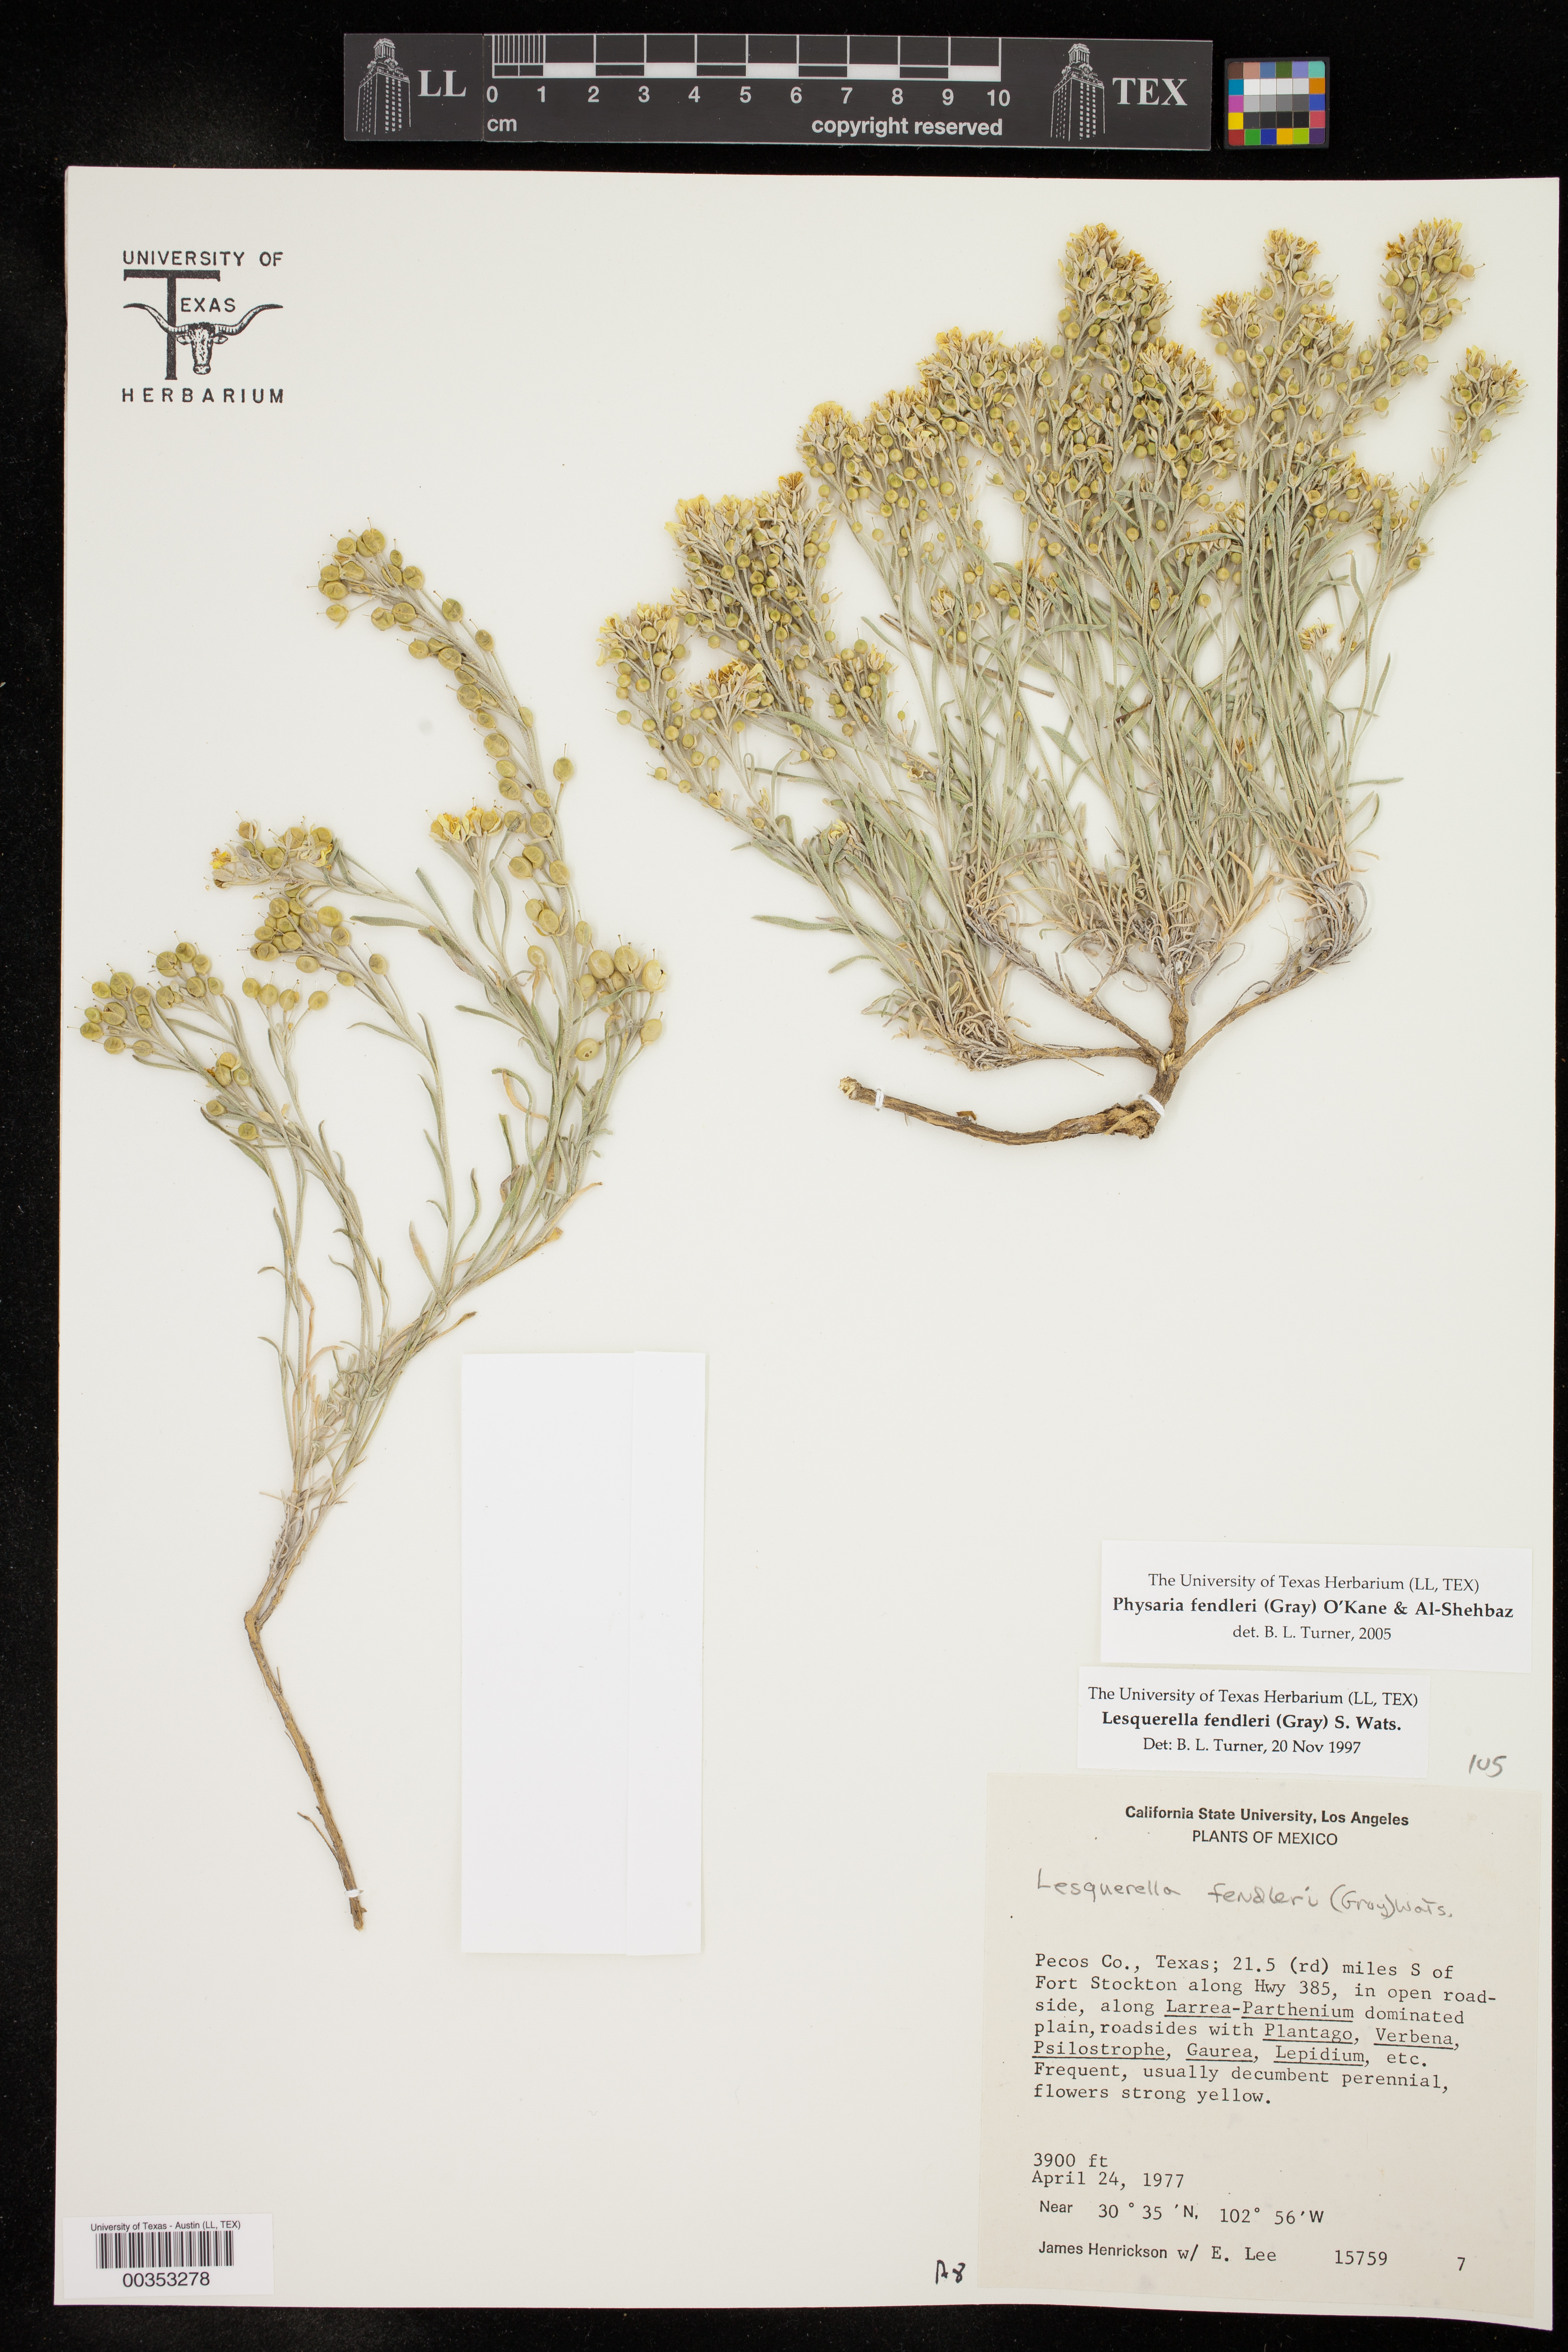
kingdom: Plantae
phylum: Tracheophyta
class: Magnoliopsida
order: Brassicales
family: Brassicaceae
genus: Physaria
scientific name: Physaria fendleri
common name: Fendler's bladderpod
